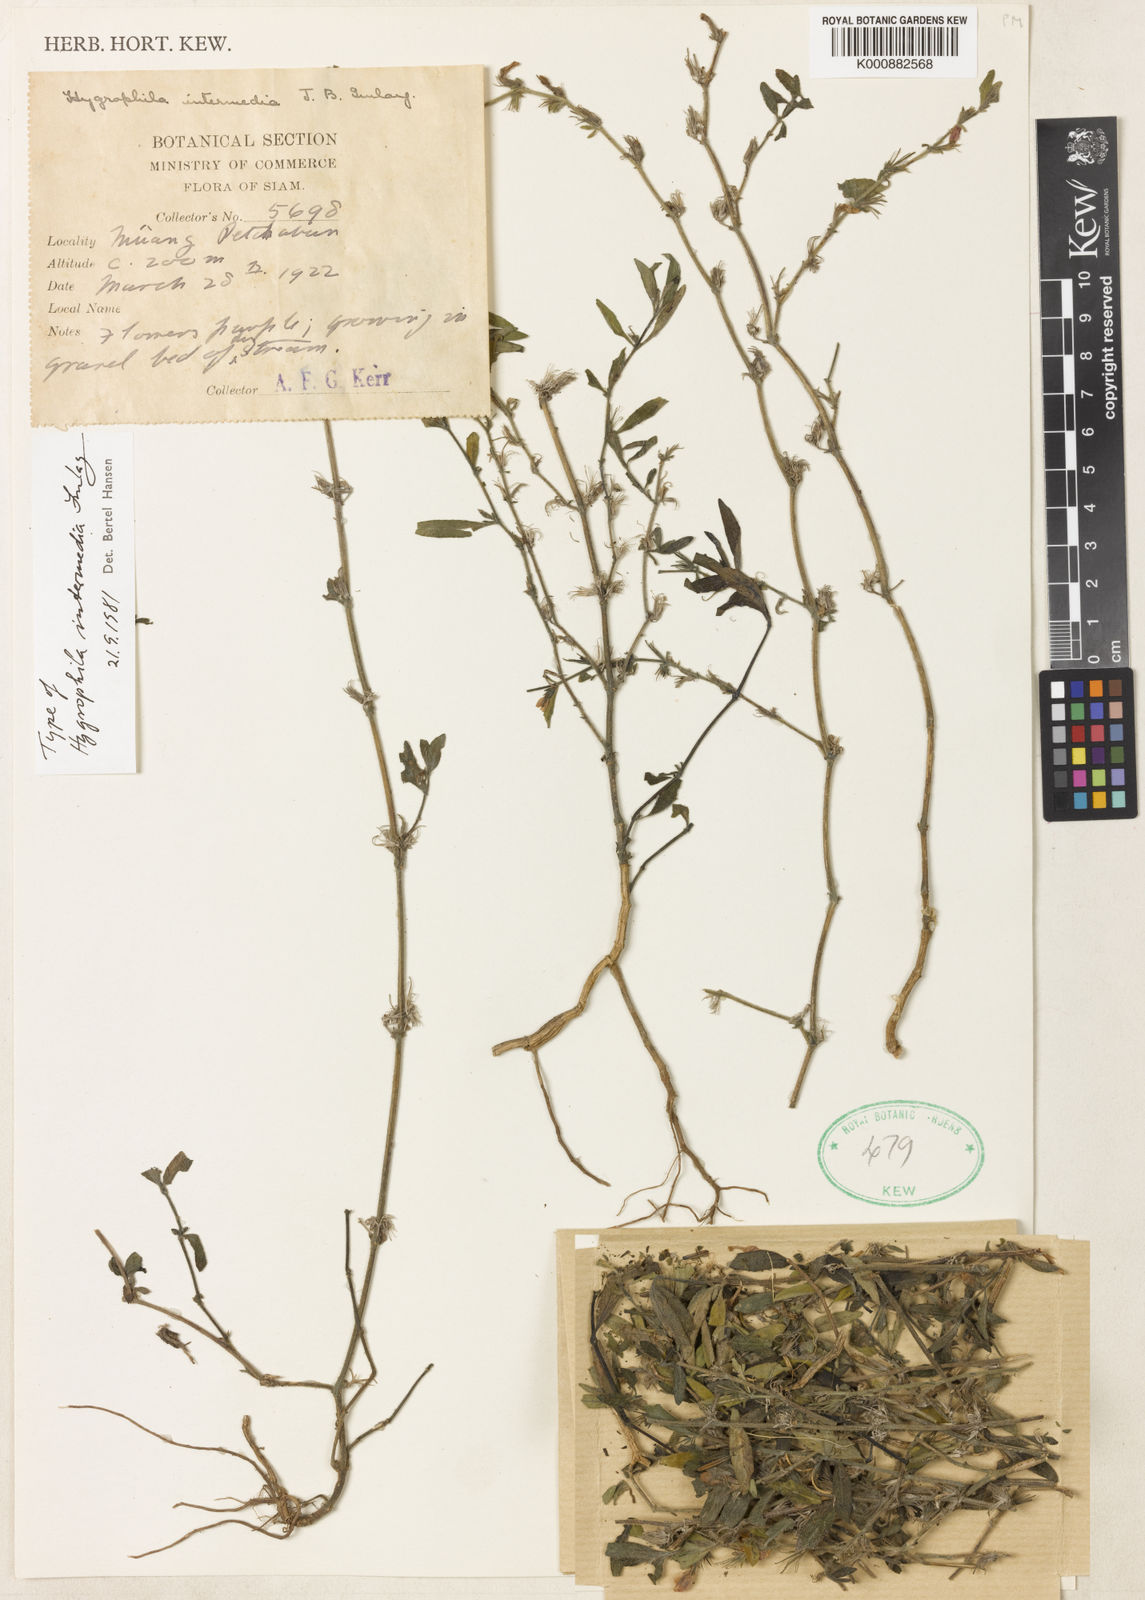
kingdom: Plantae
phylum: Tracheophyta
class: Magnoliopsida
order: Lamiales
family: Acanthaceae
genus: Hygrophila
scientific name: Hygrophila intermedia
